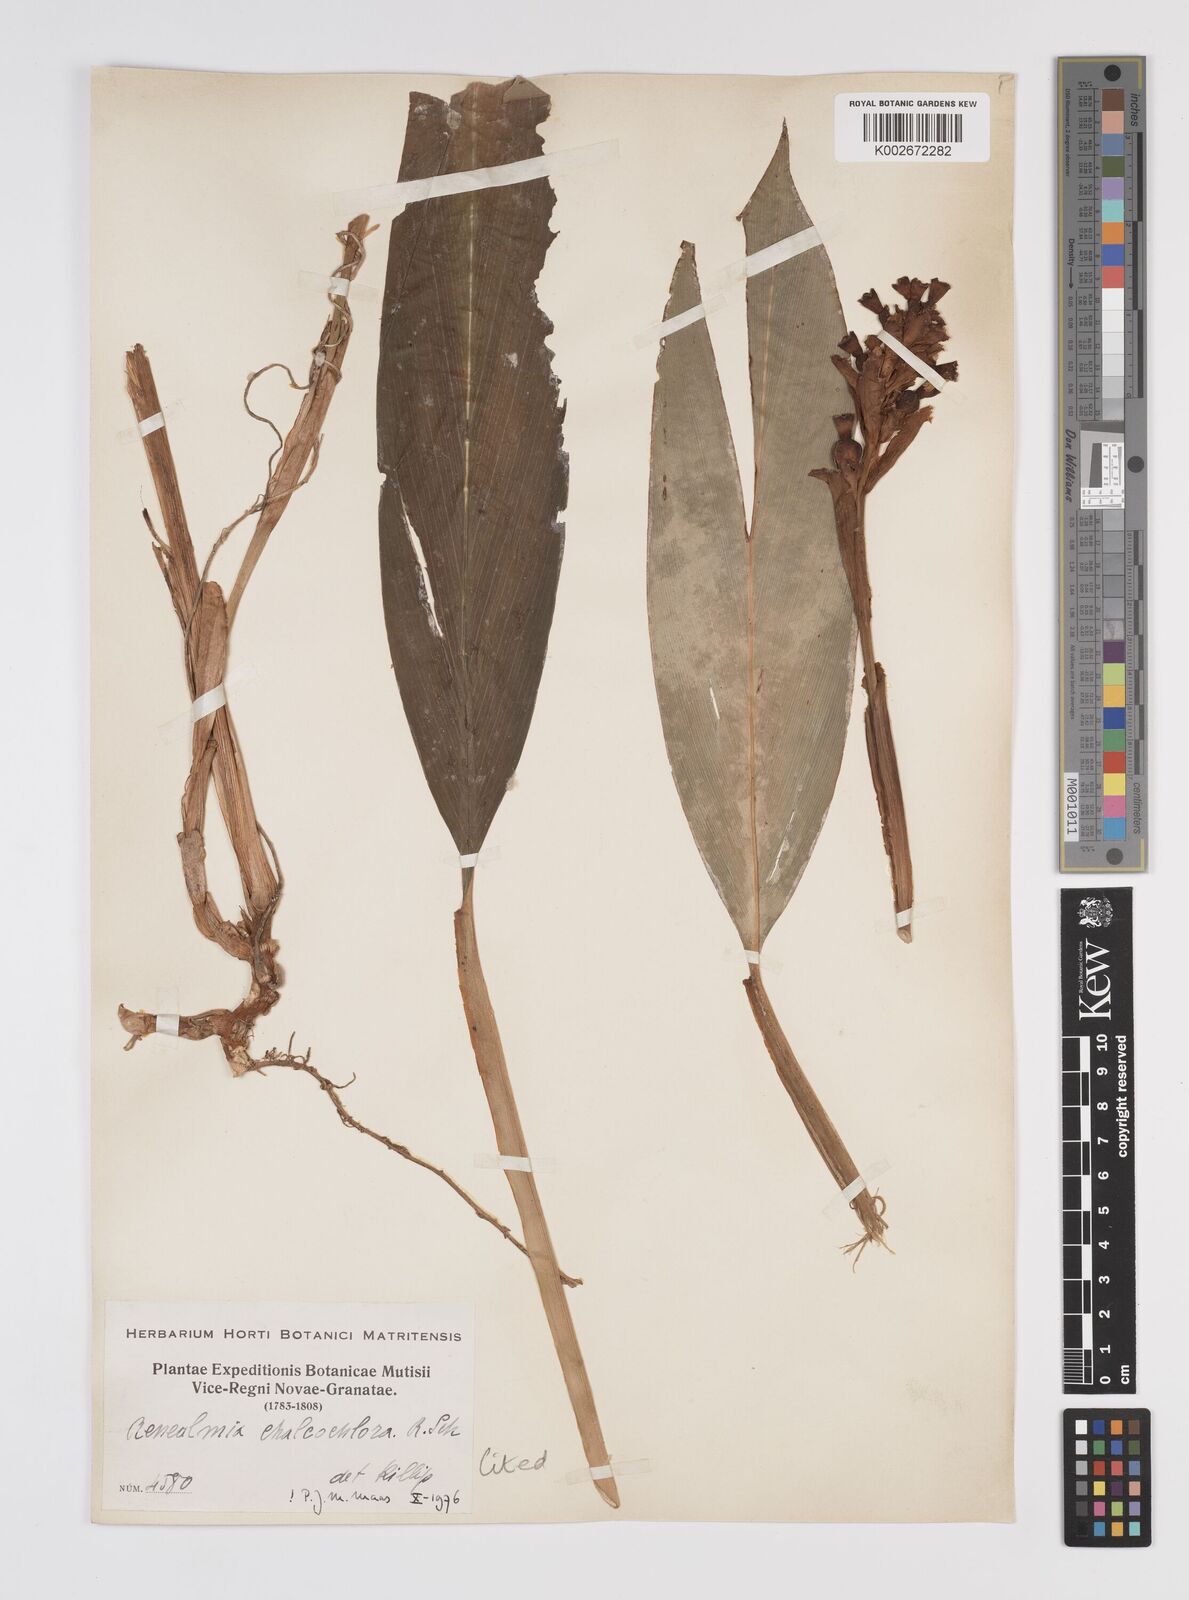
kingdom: Plantae
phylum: Tracheophyta
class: Liliopsida
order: Zingiberales
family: Zingiberaceae
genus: Renealmia
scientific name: Renealmia chalcochlora
